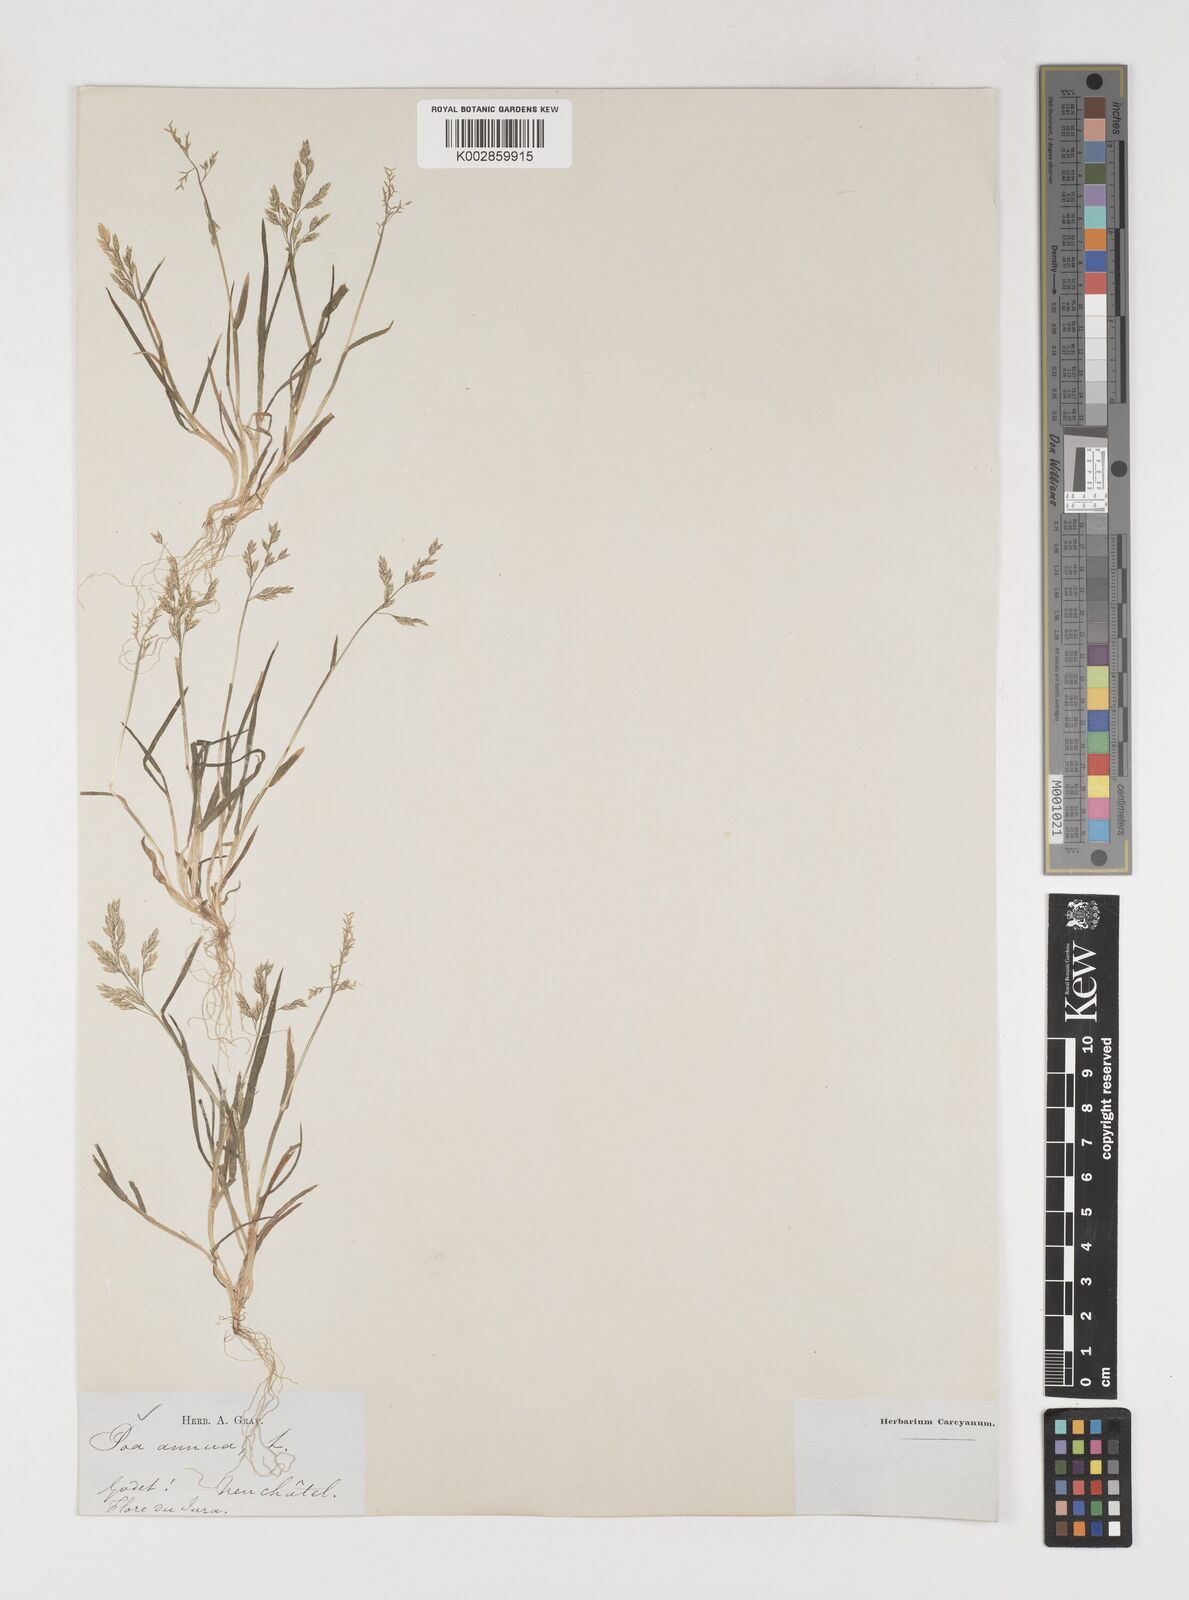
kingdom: Plantae
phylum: Tracheophyta
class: Liliopsida
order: Poales
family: Poaceae
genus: Poa
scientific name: Poa annua
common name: Annual bluegrass
